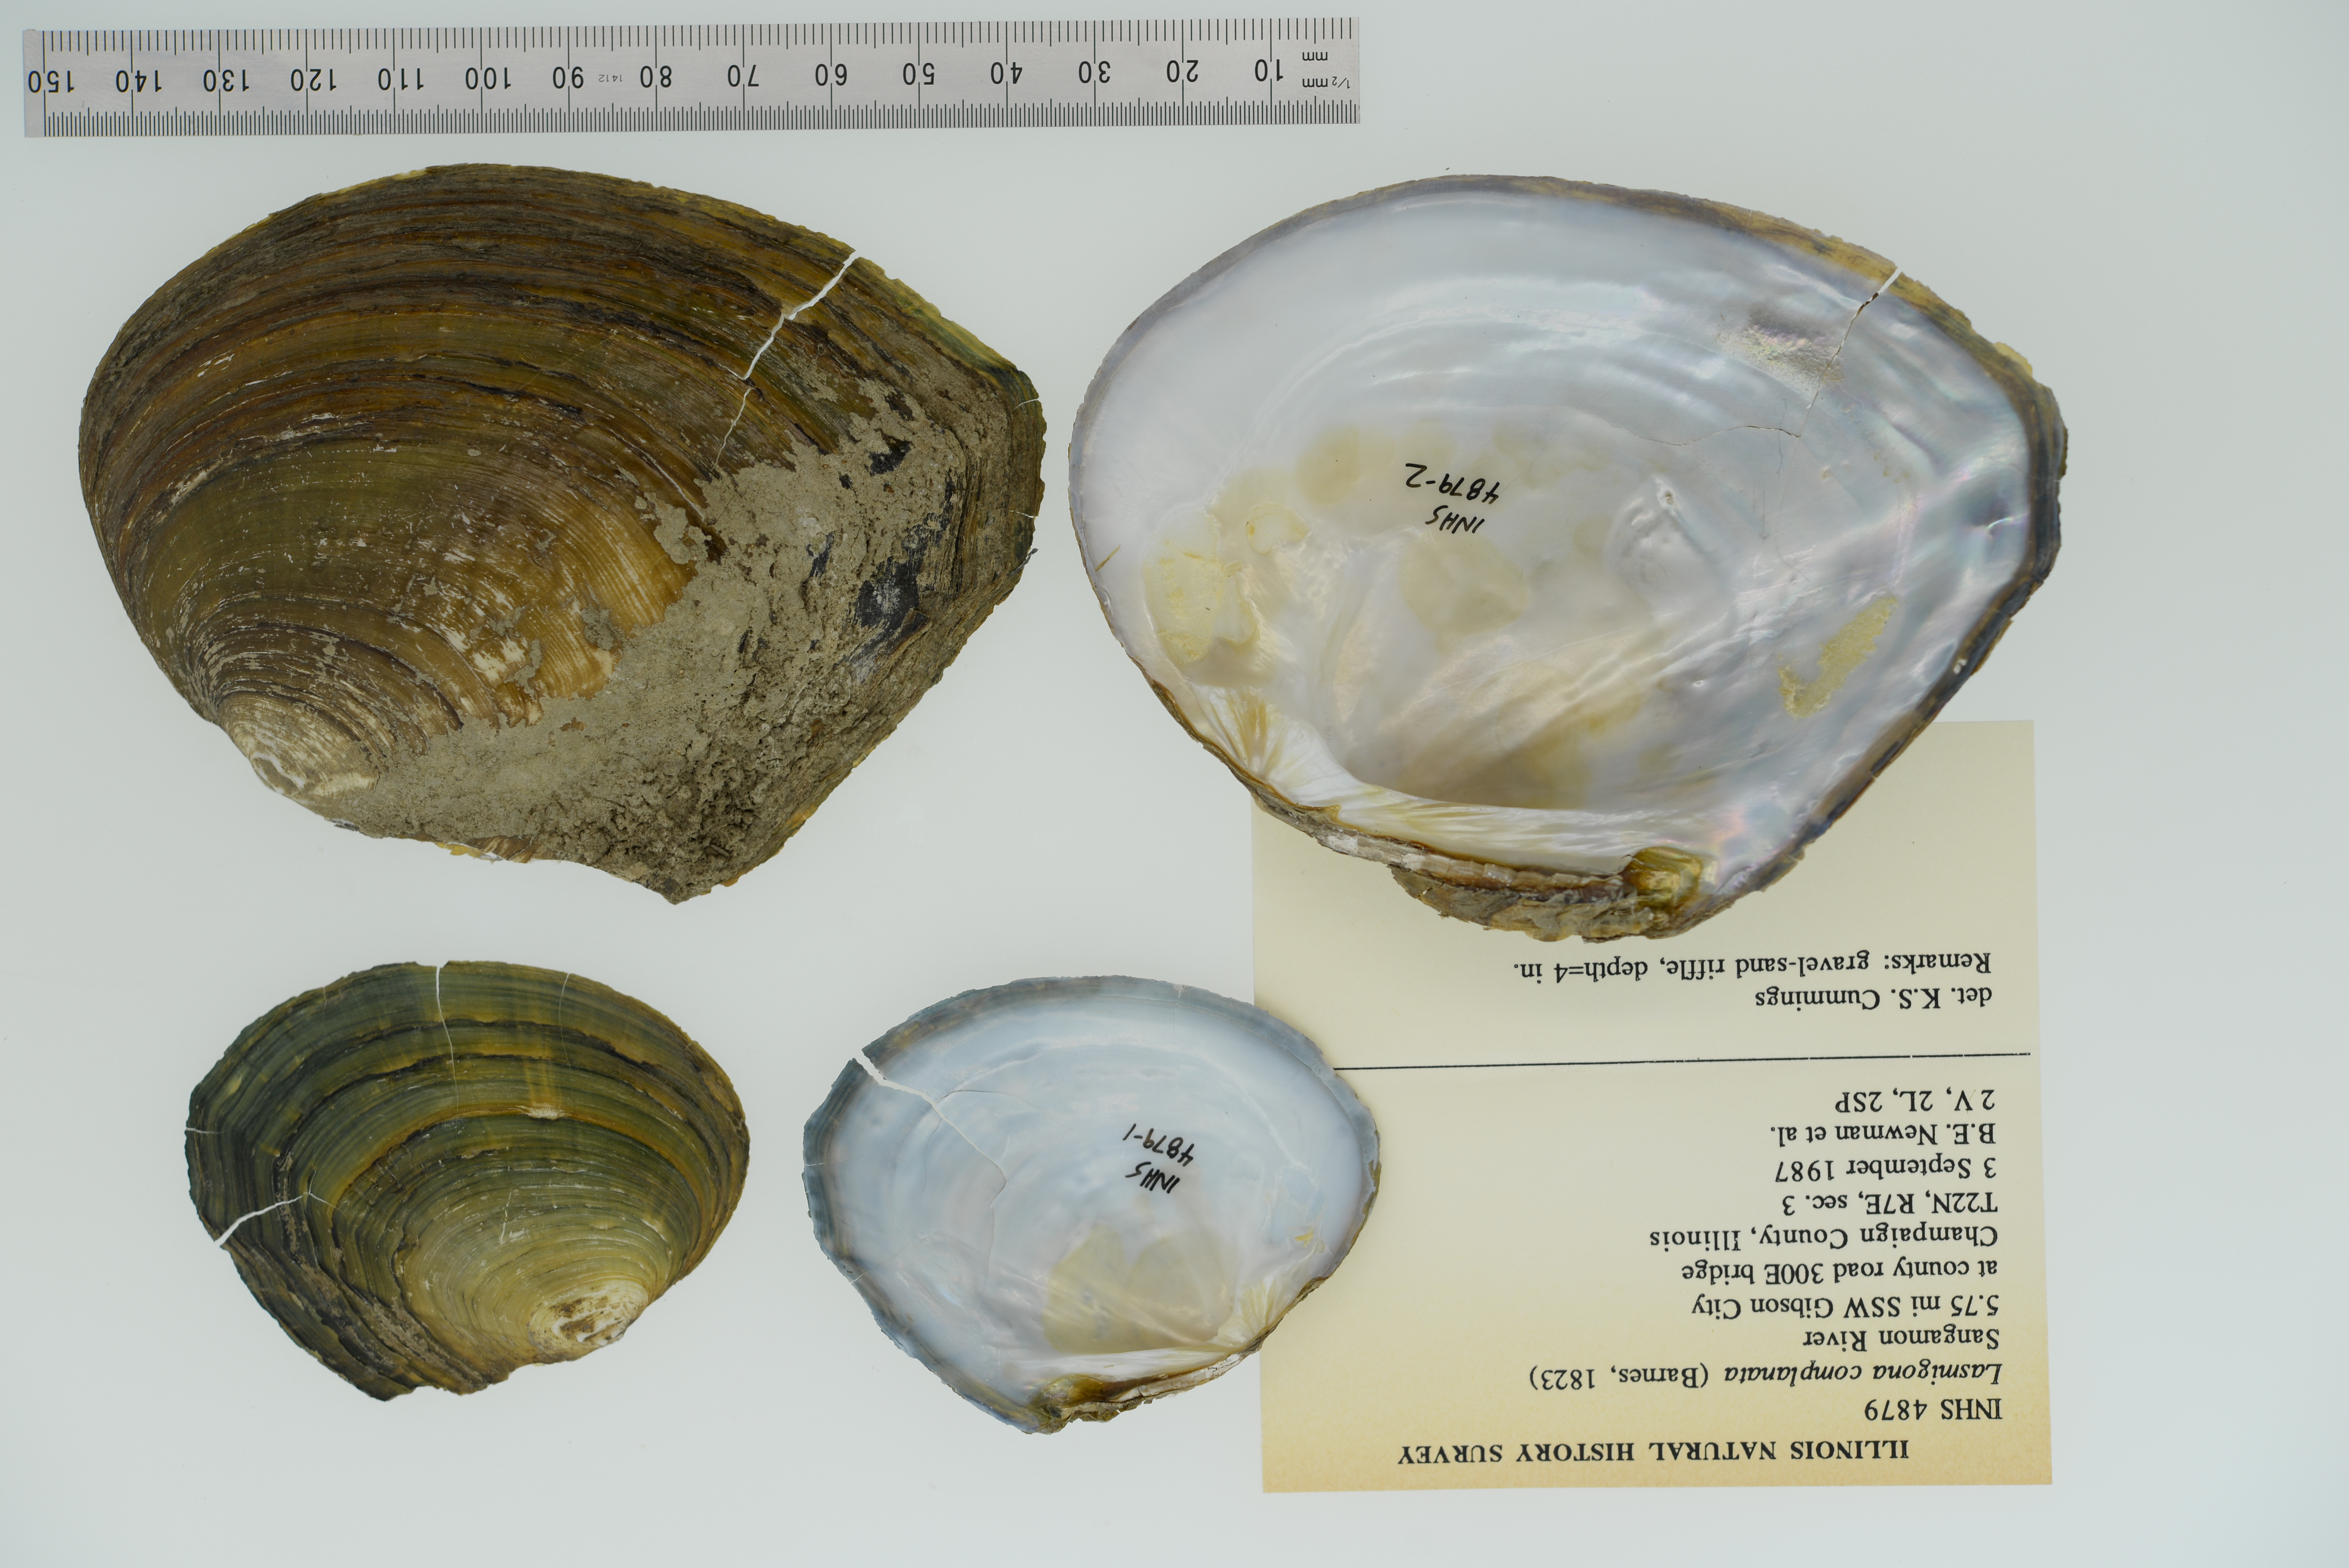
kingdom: Animalia
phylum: Mollusca
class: Bivalvia
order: Unionida
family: Unionidae
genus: Lasmigona
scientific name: Lasmigona complanata
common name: White heelsplitter
